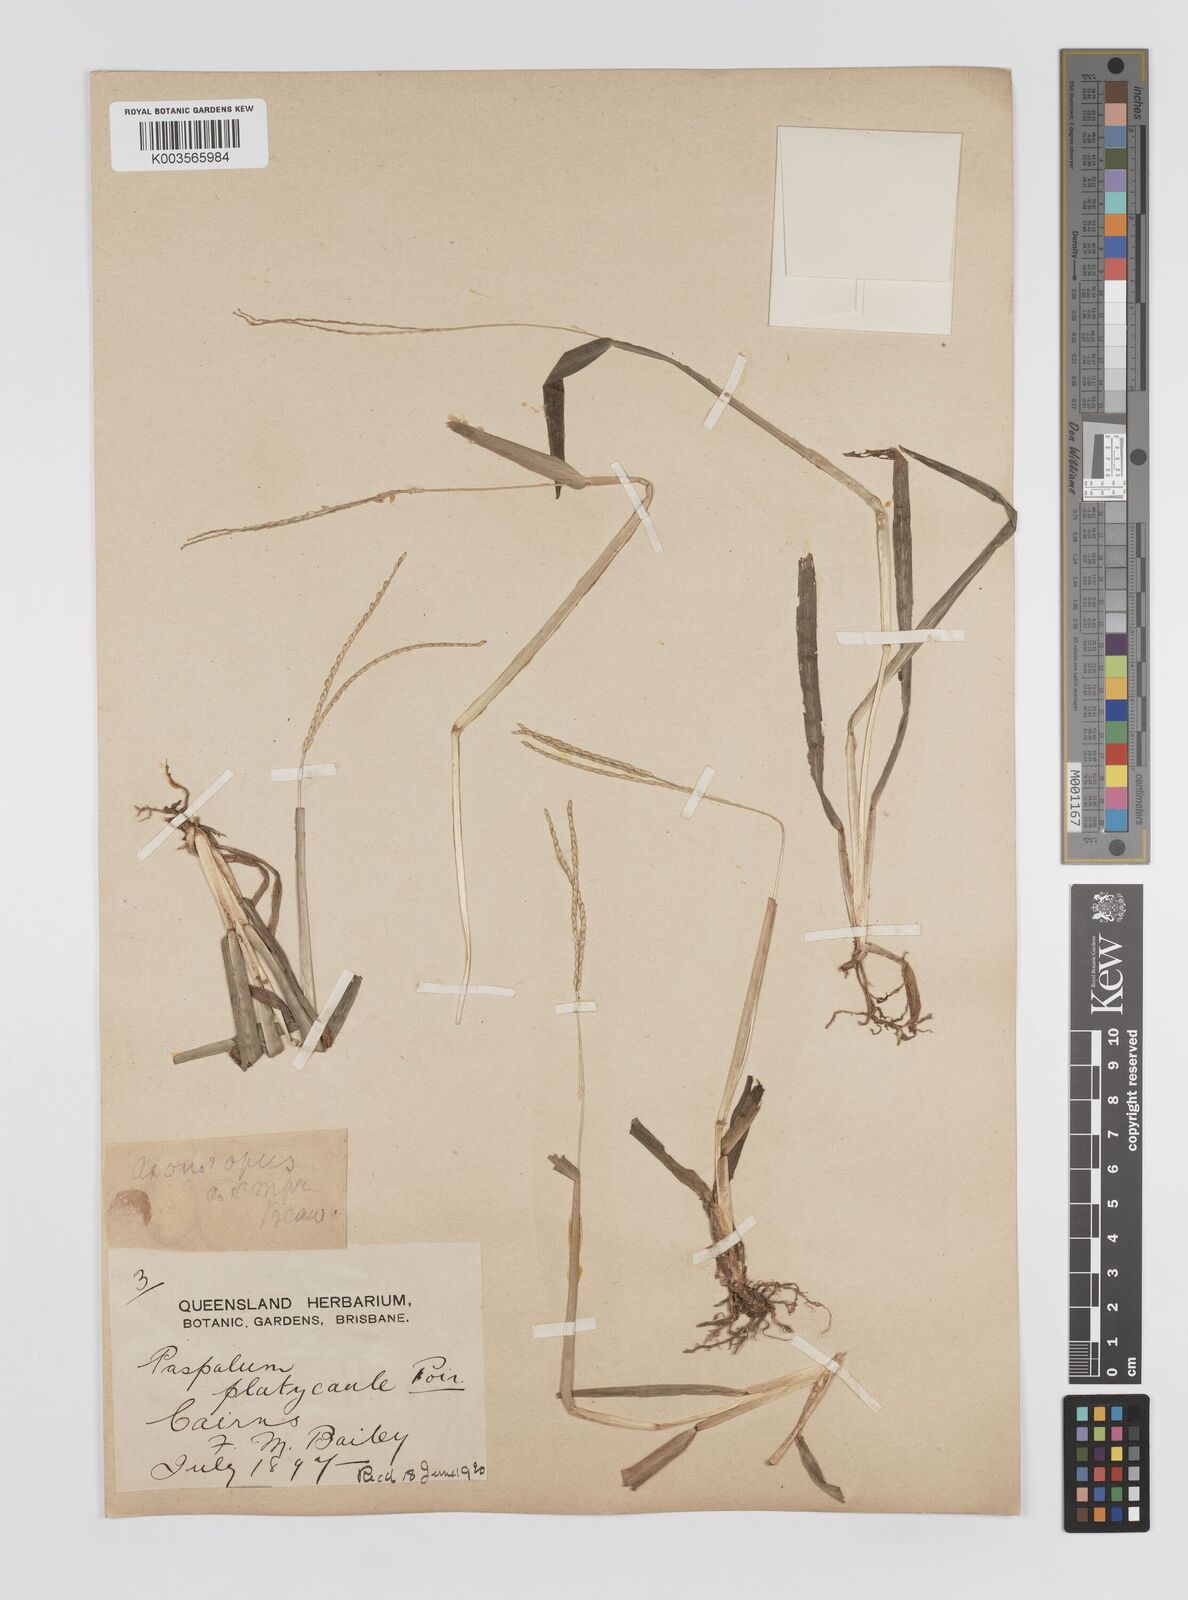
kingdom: Plantae
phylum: Tracheophyta
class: Liliopsida
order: Poales
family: Poaceae
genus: Axonopus
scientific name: Axonopus compressus
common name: American carpet grass
